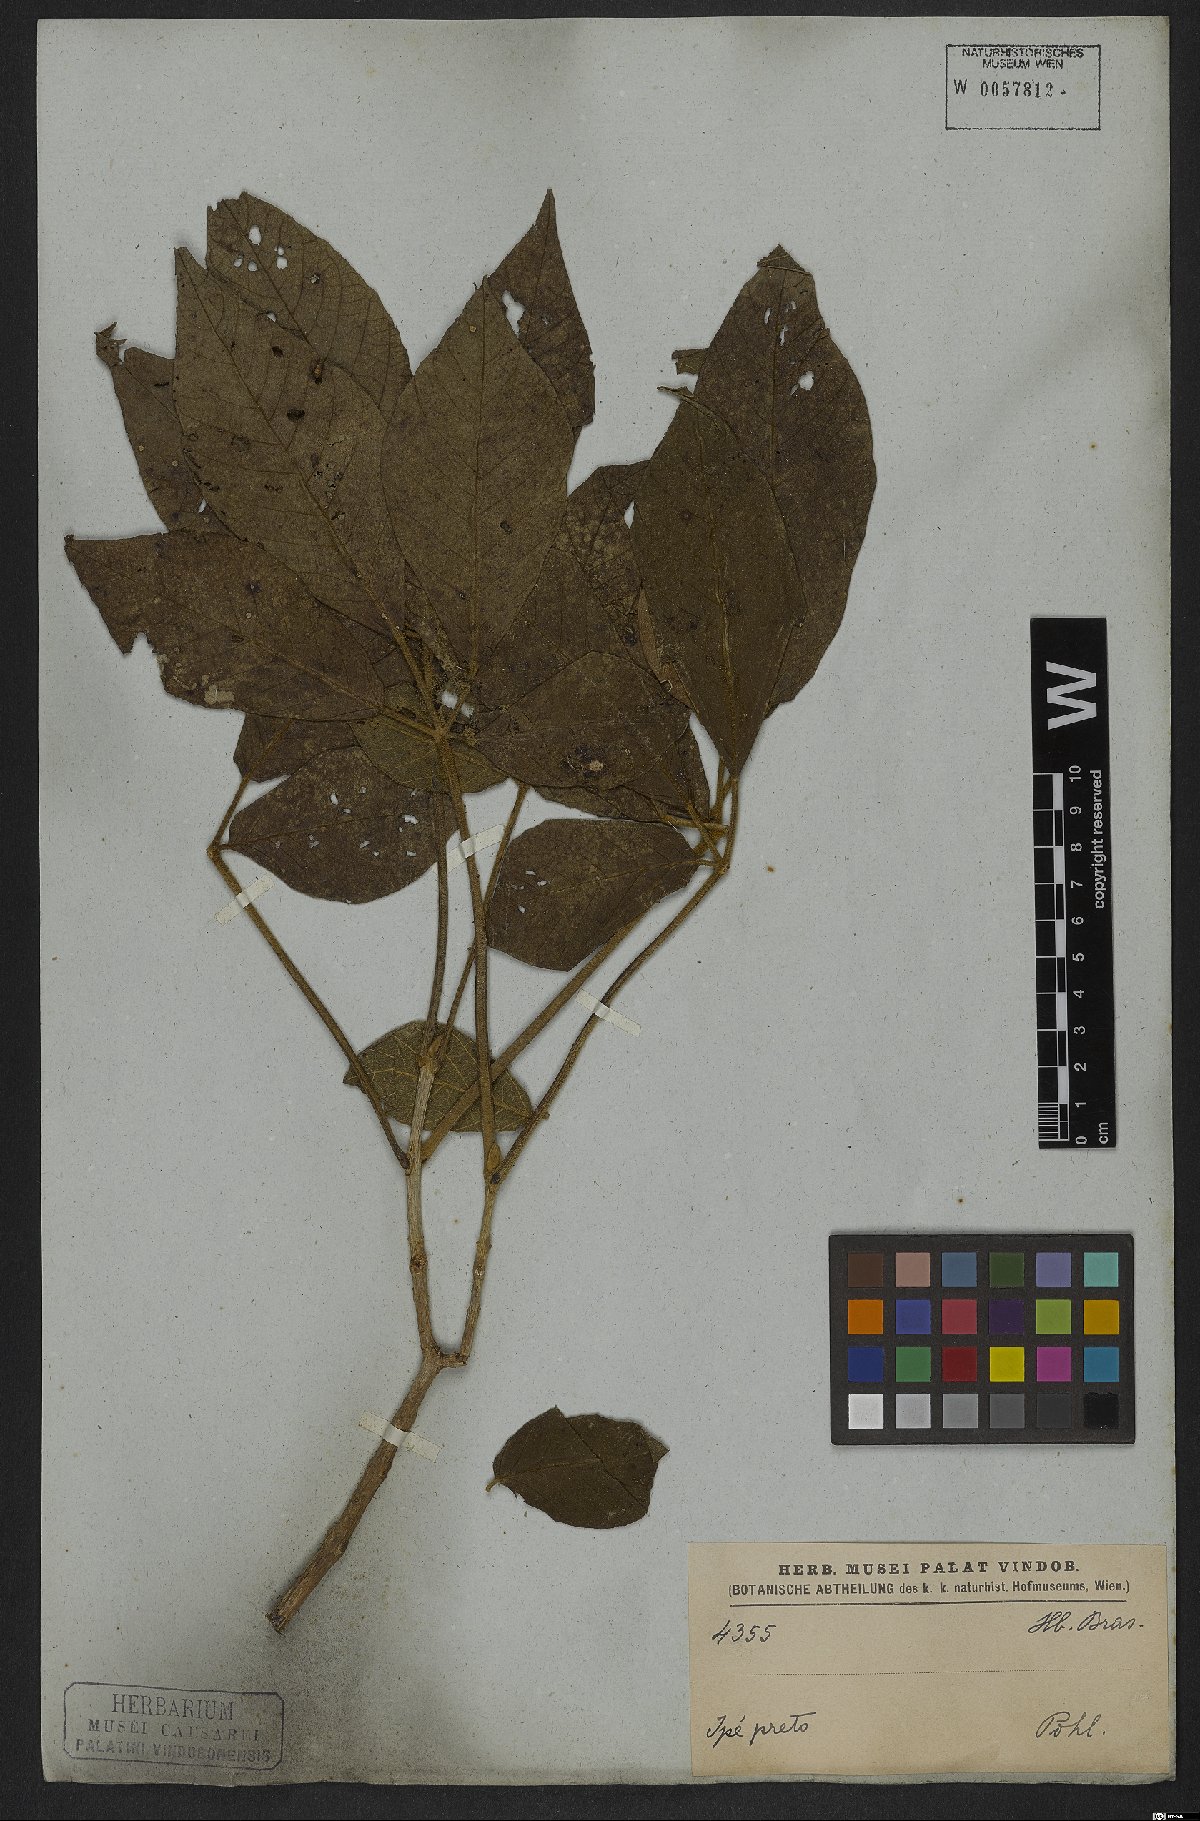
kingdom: Plantae
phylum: Tracheophyta
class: Magnoliopsida
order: Lamiales
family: Bignoniaceae
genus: Tabebuia
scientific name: Tabebuia aurea
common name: Caribbean trumpet-tree
